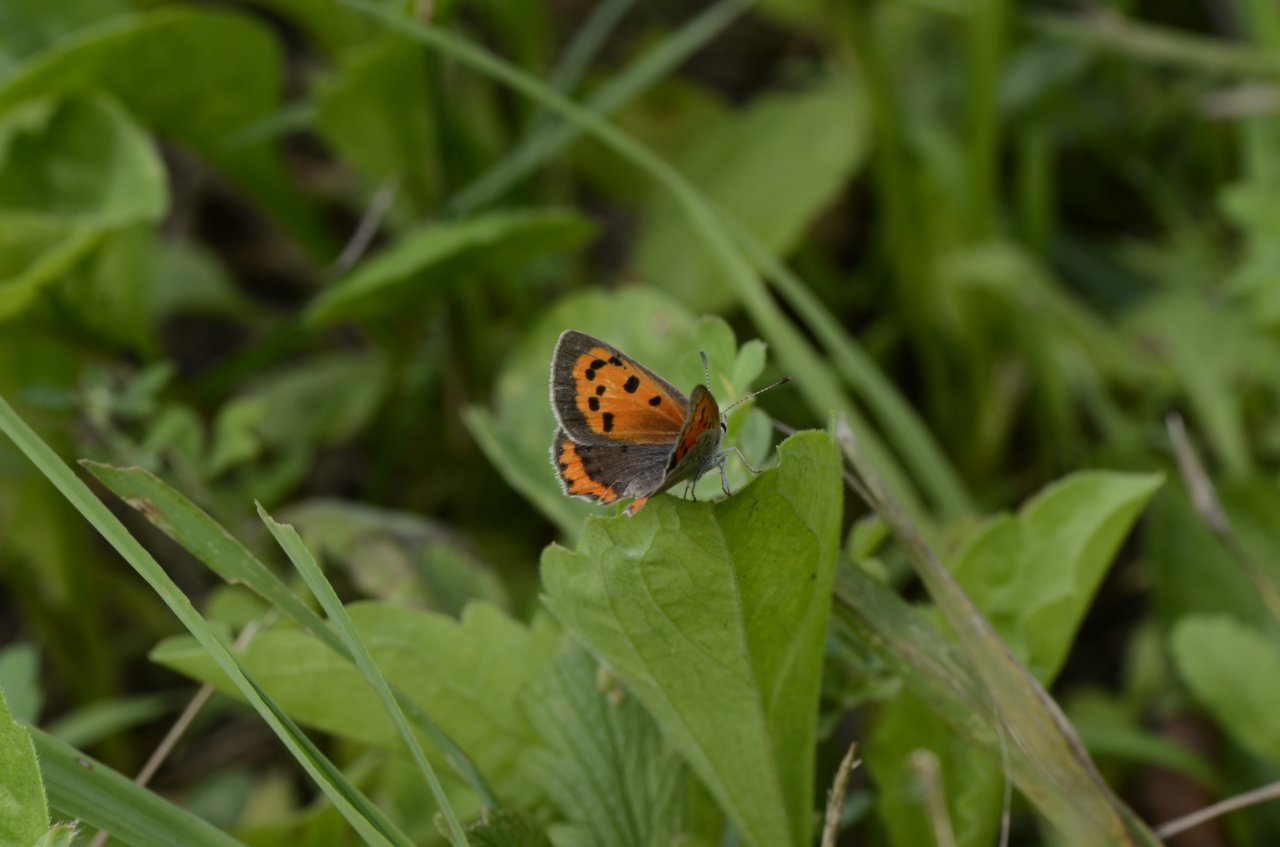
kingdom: Animalia
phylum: Arthropoda
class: Insecta
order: Lepidoptera
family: Lycaenidae
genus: Lycaena
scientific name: Lycaena phlaeas
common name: American Copper
